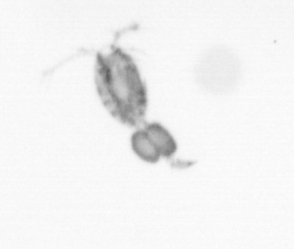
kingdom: Animalia
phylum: Arthropoda
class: Copepoda
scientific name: Copepoda
